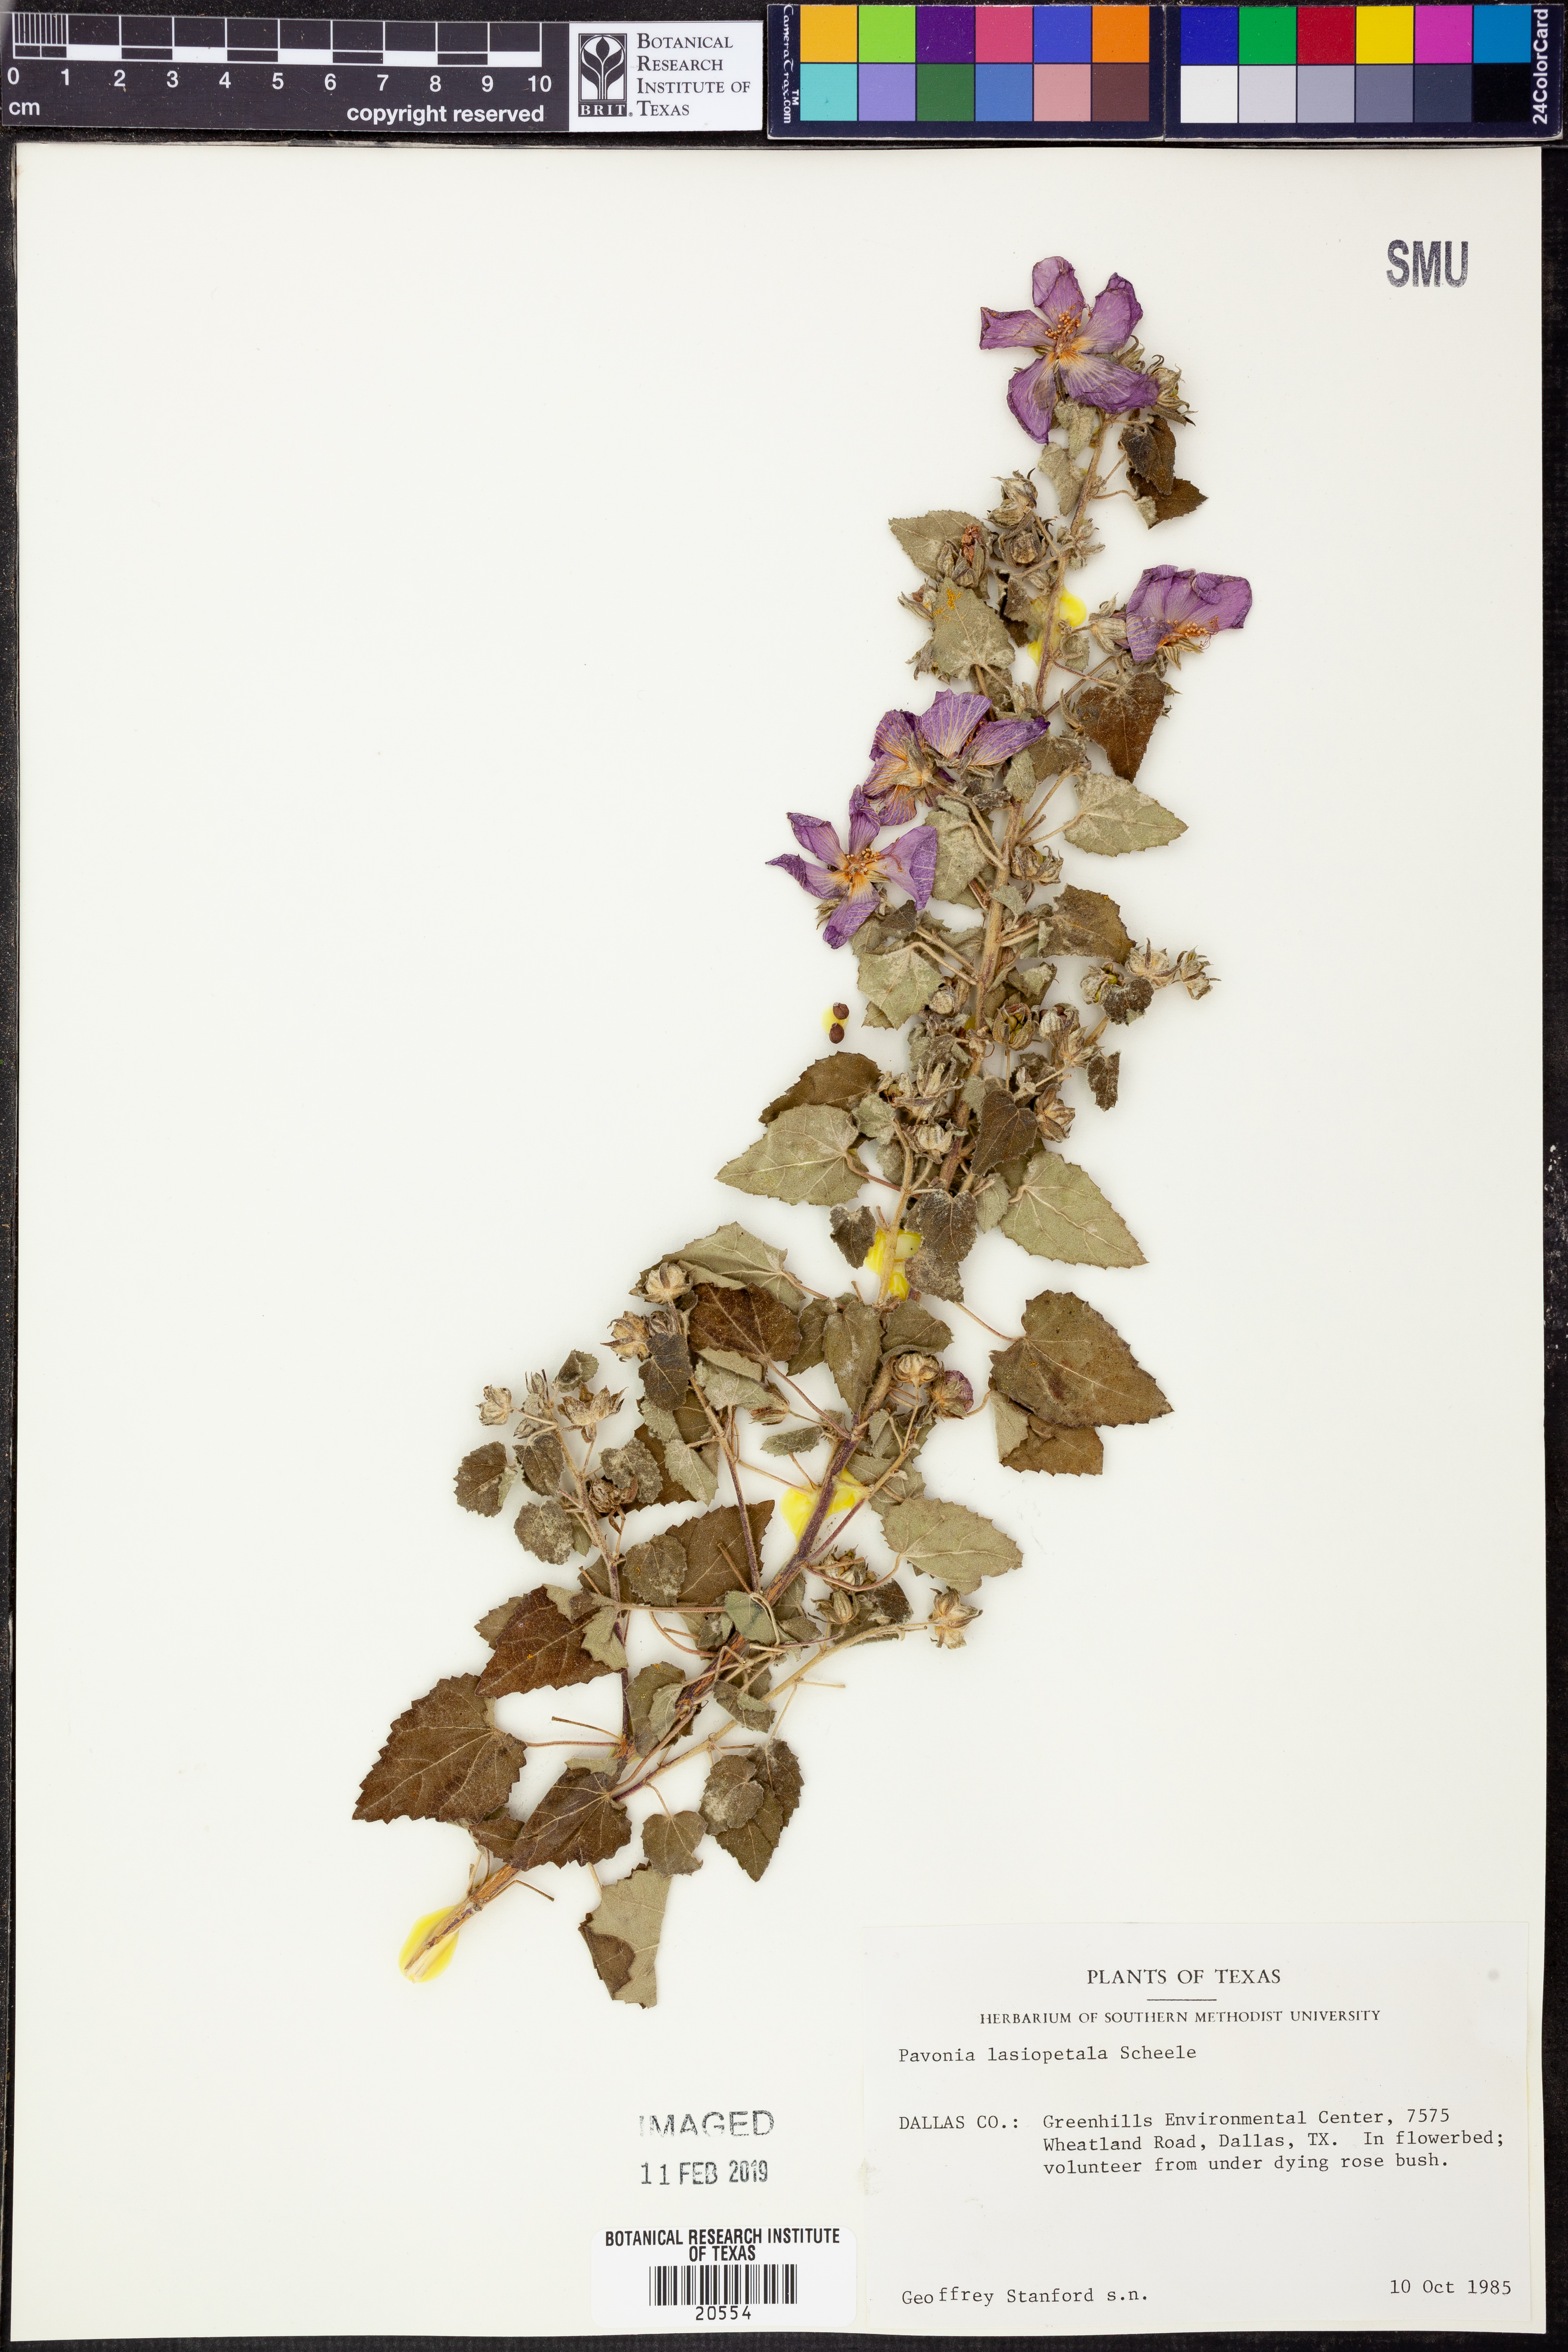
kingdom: Plantae
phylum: Tracheophyta
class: Magnoliopsida
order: Malvales
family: Malvaceae
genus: Pavonia
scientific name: Pavonia lasiopetala
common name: Texas swamp-mallow
